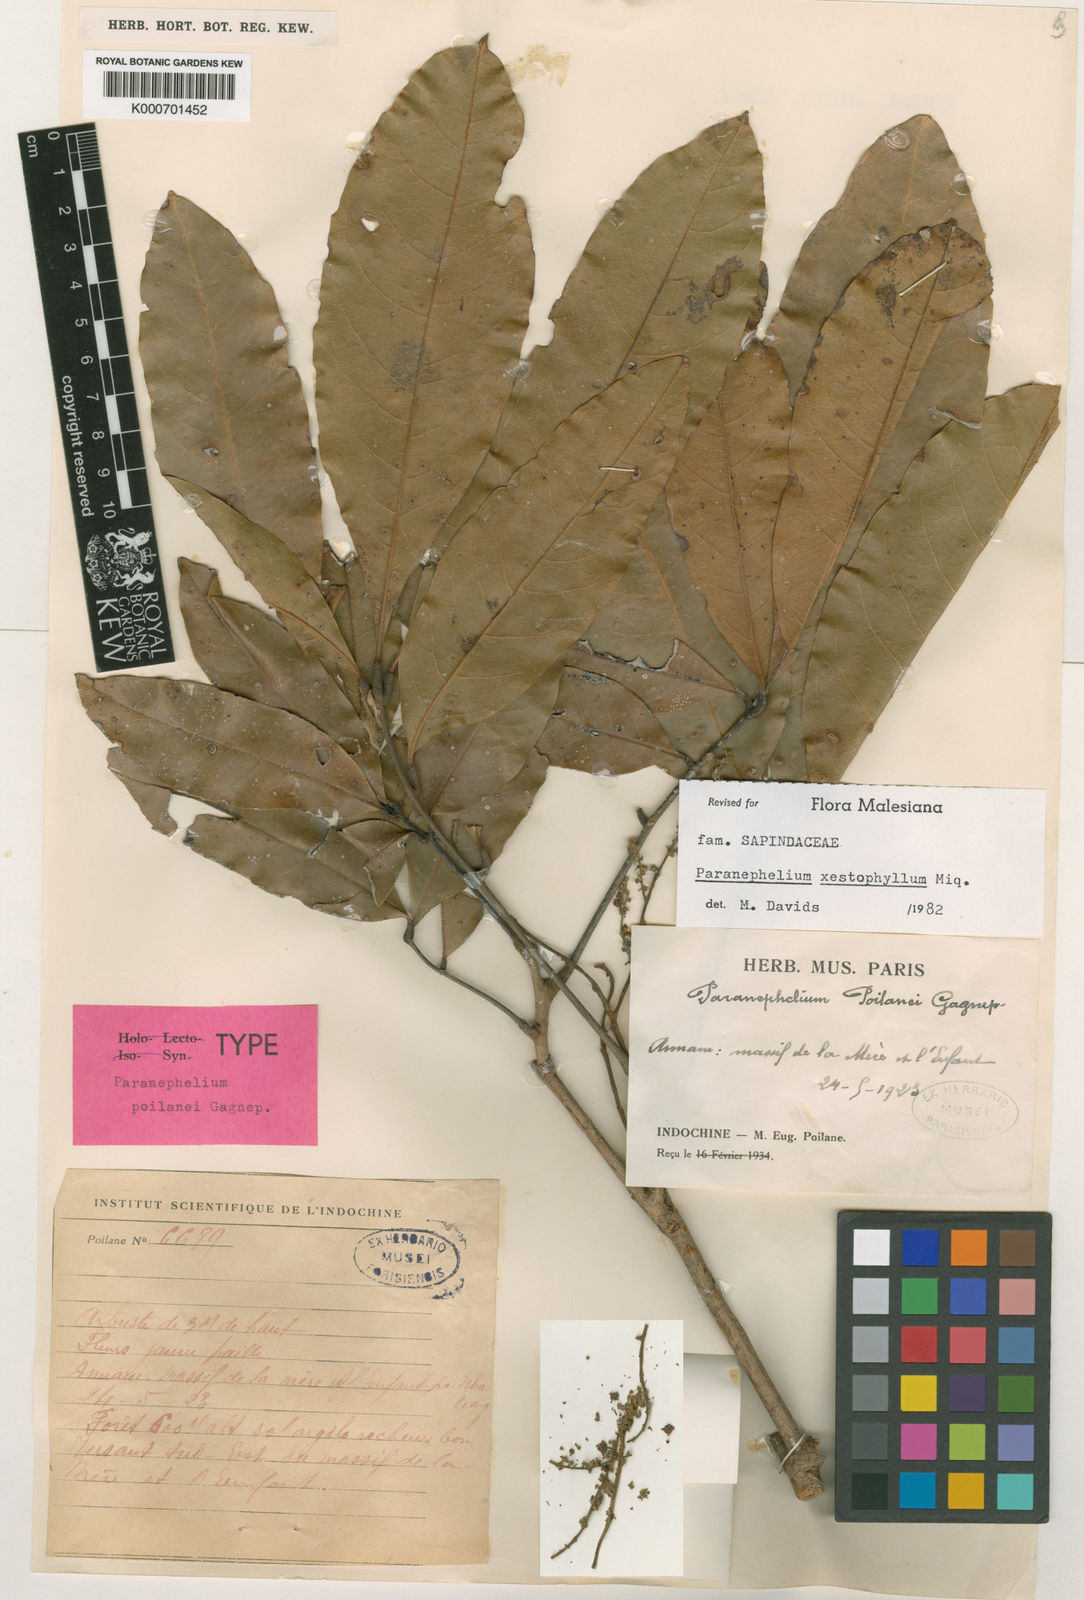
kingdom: Plantae
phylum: Tracheophyta
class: Magnoliopsida
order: Sapindales
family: Sapindaceae
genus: Paranephelium
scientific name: Paranephelium xestophyllum
